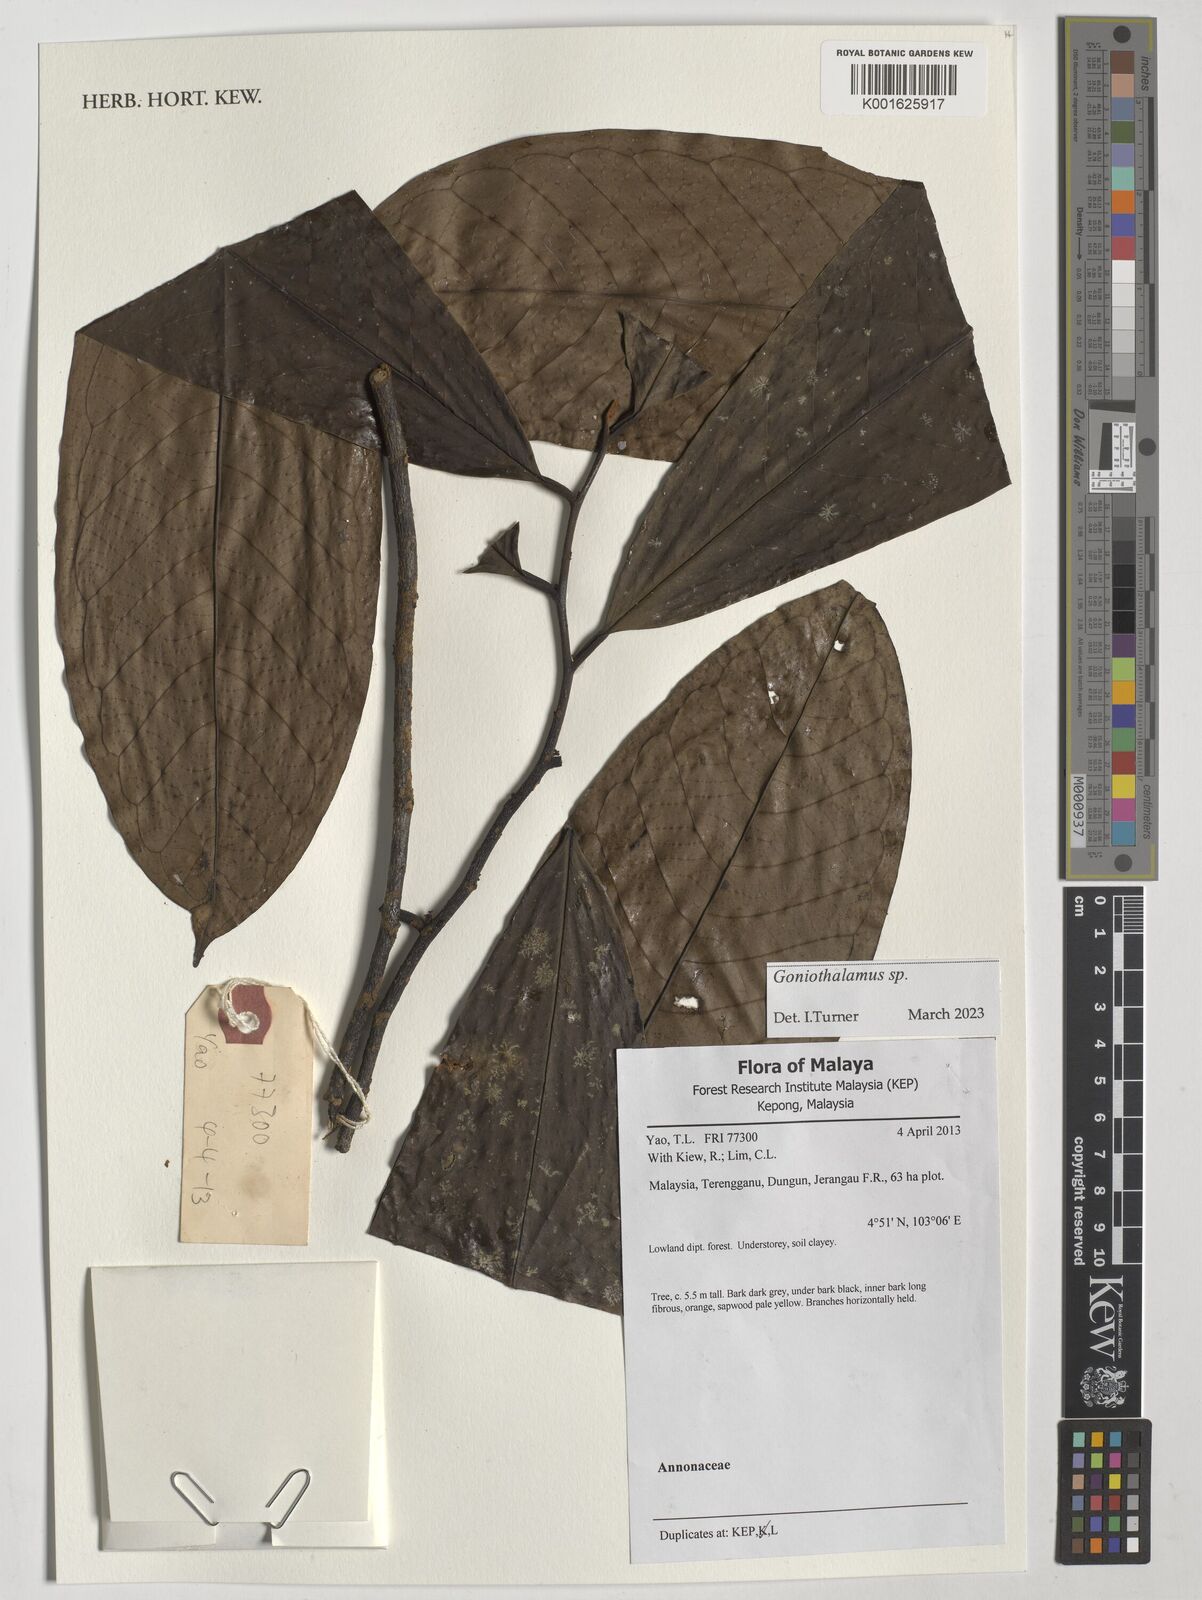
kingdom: Plantae
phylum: Tracheophyta
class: Magnoliopsida
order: Magnoliales
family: Annonaceae
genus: Goniothalamus
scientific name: Goniothalamus
